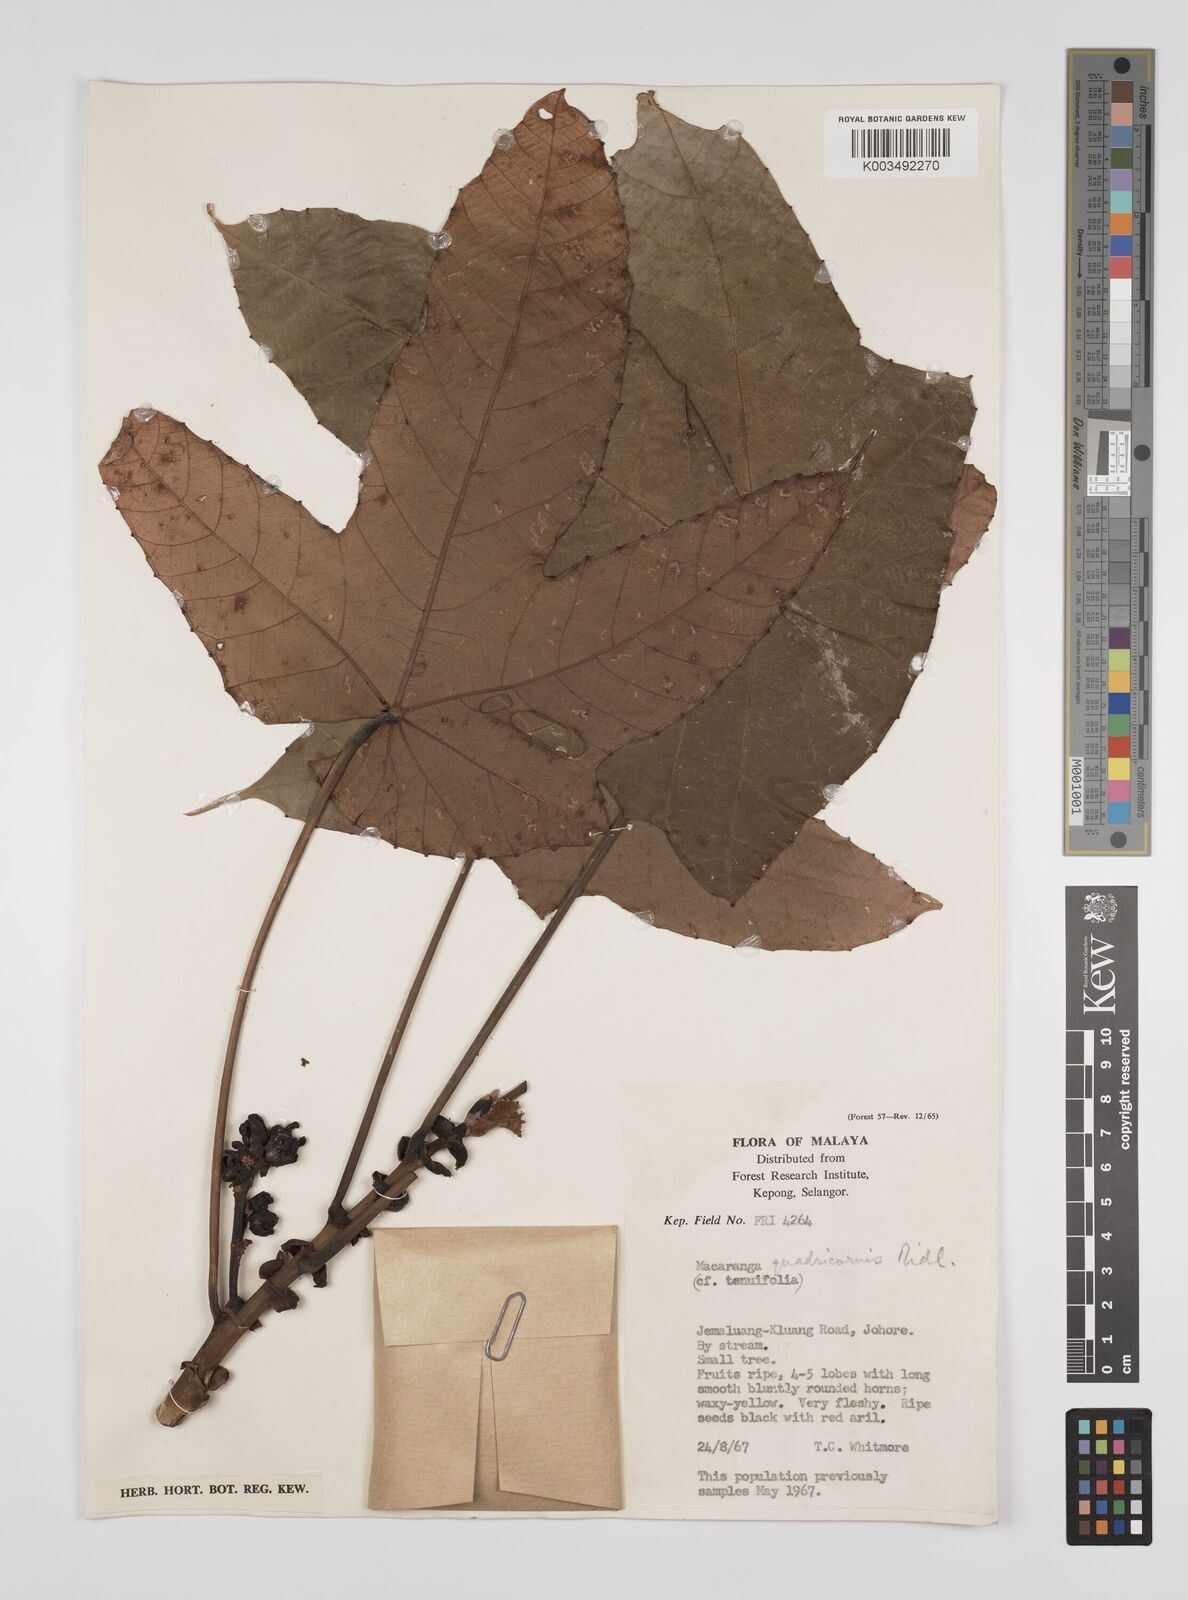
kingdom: Plantae
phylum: Tracheophyta
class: Magnoliopsida
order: Malpighiales
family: Euphorbiaceae
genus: Macaranga
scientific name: Macaranga triloba
